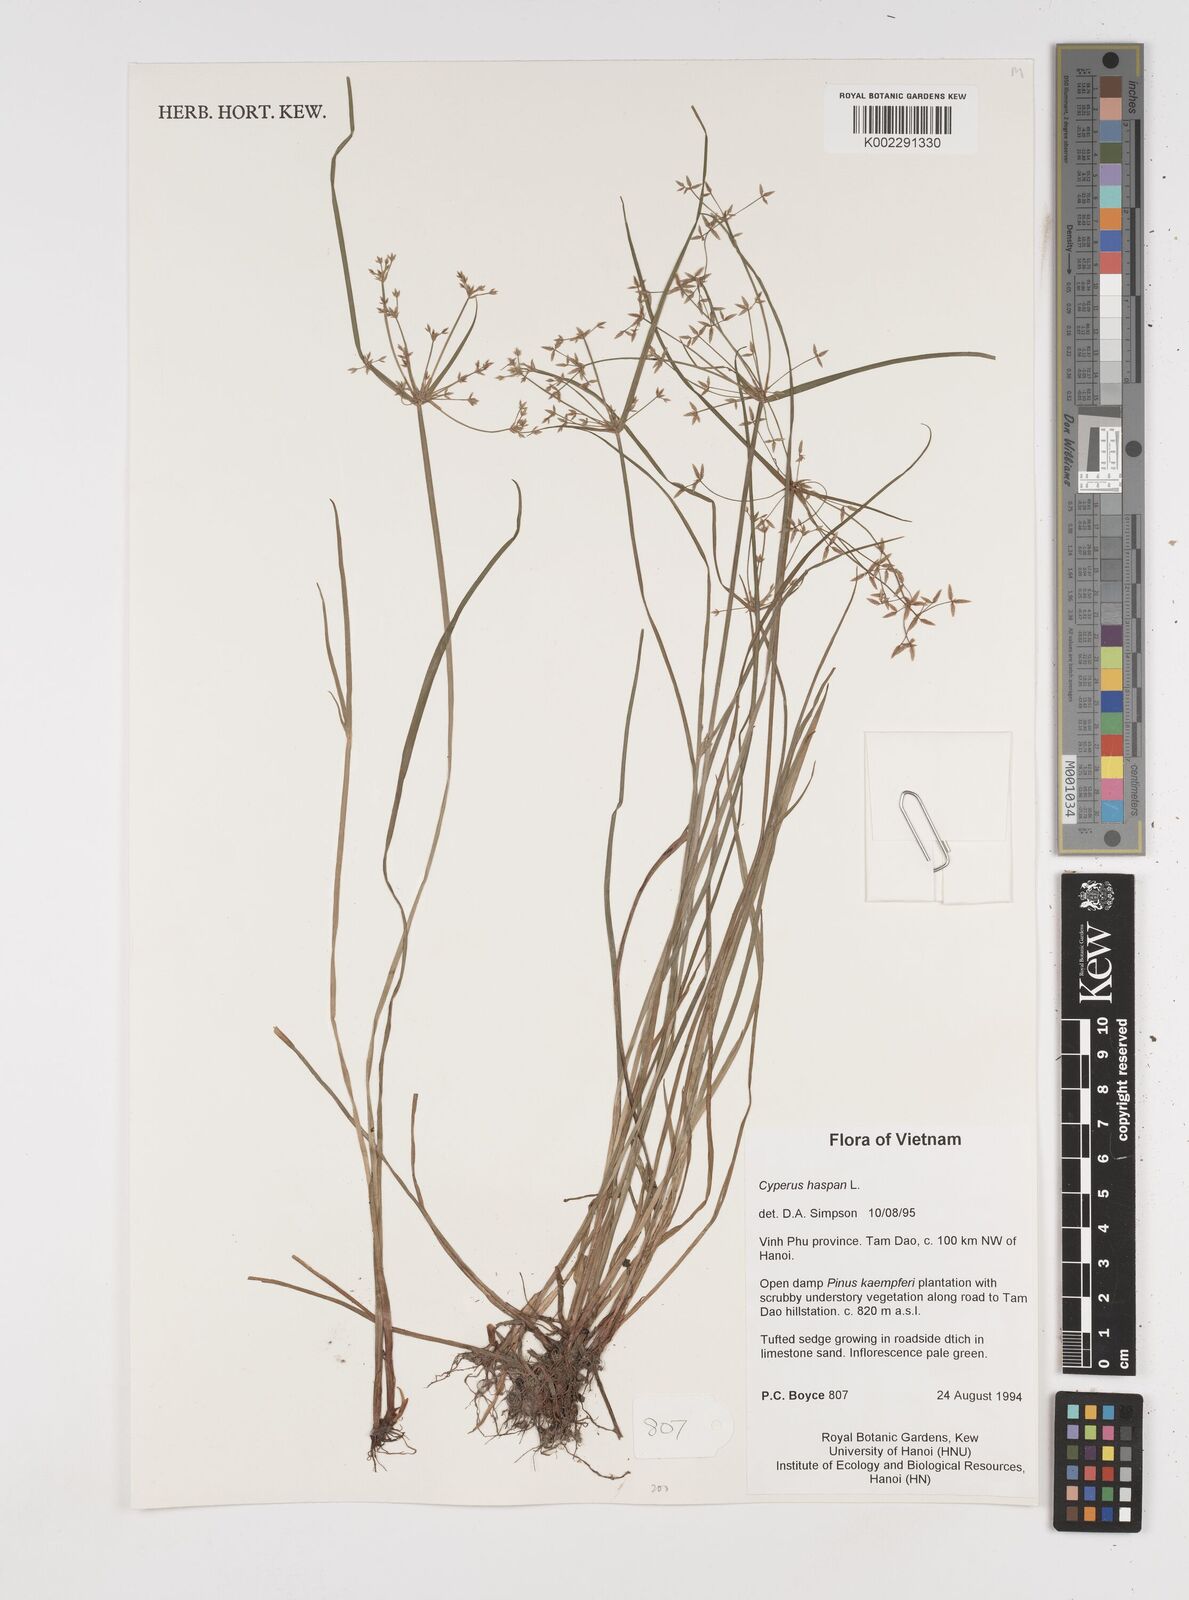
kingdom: Plantae
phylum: Tracheophyta
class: Liliopsida
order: Poales
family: Cyperaceae
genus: Cyperus
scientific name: Cyperus haspan
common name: Haspan flatsedge
